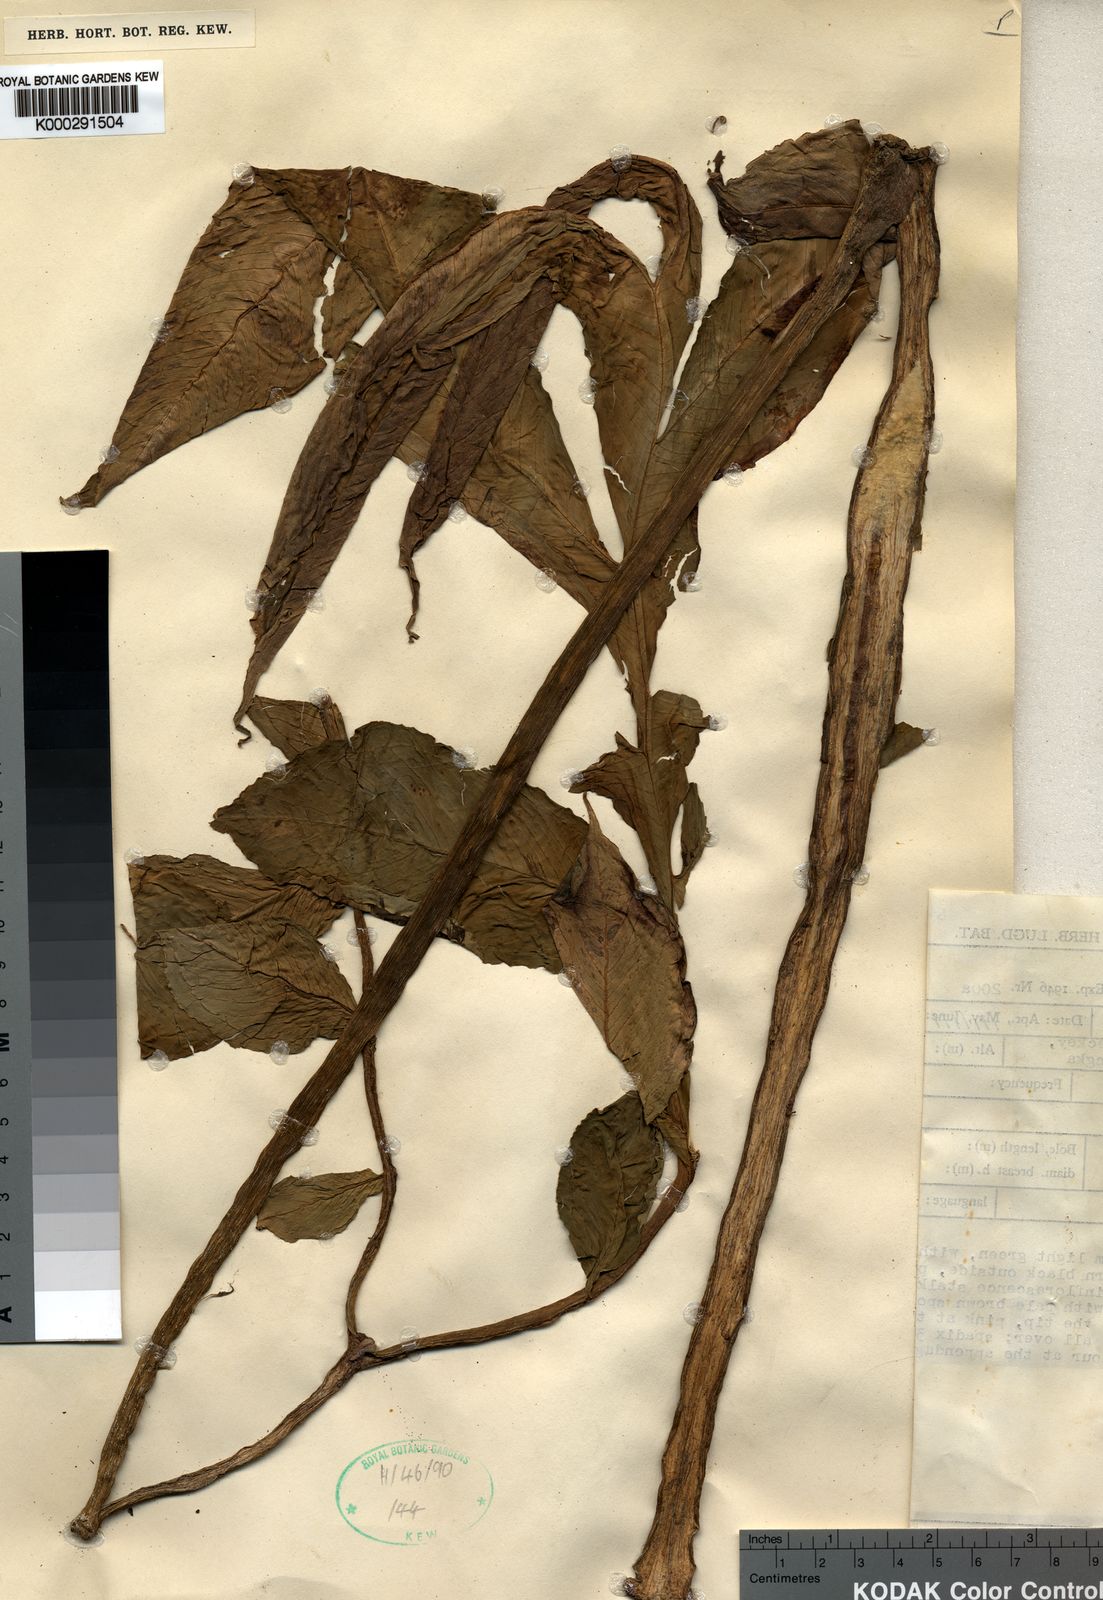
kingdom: Plantae
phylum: Tracheophyta
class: Liliopsida
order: Alismatales
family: Araceae
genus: Amorphophallus
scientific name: Amorphophallus muelleri
